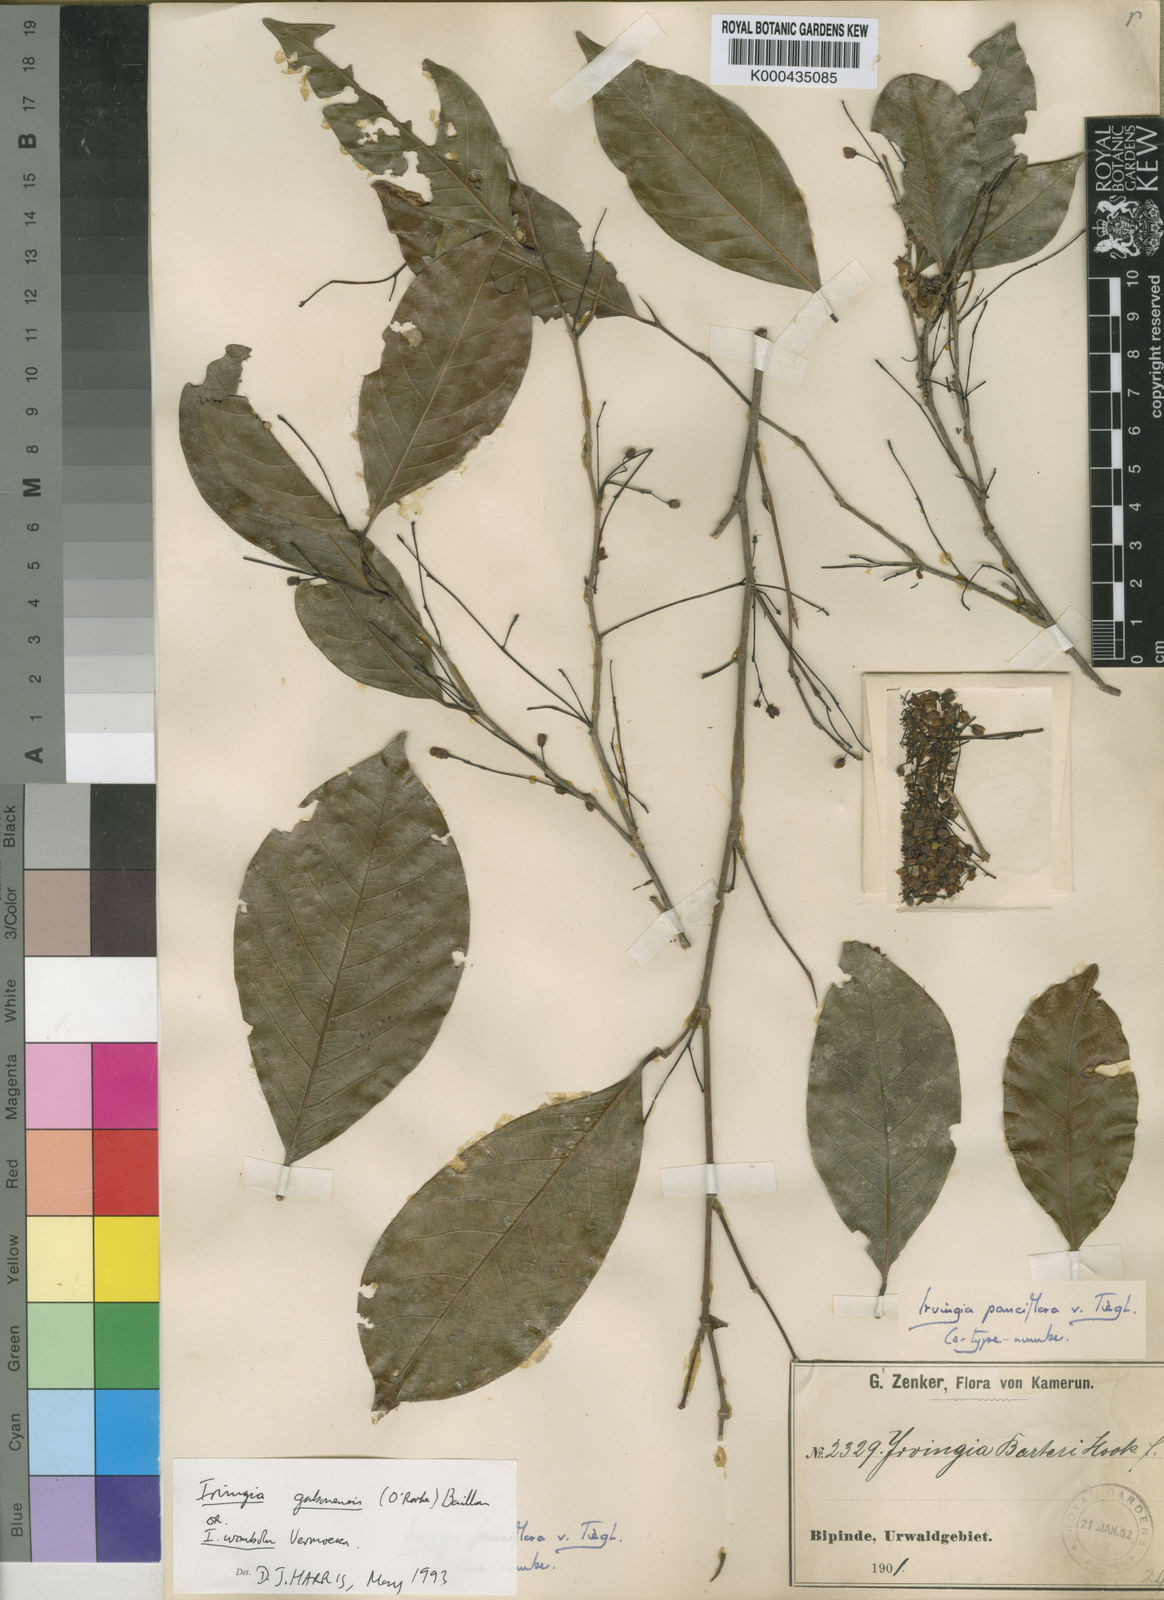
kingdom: Plantae
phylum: Tracheophyta
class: Magnoliopsida
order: Malpighiales
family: Irvingiaceae
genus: Irvingia
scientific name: Irvingia gabonensis
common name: Rainy season bush-mango
